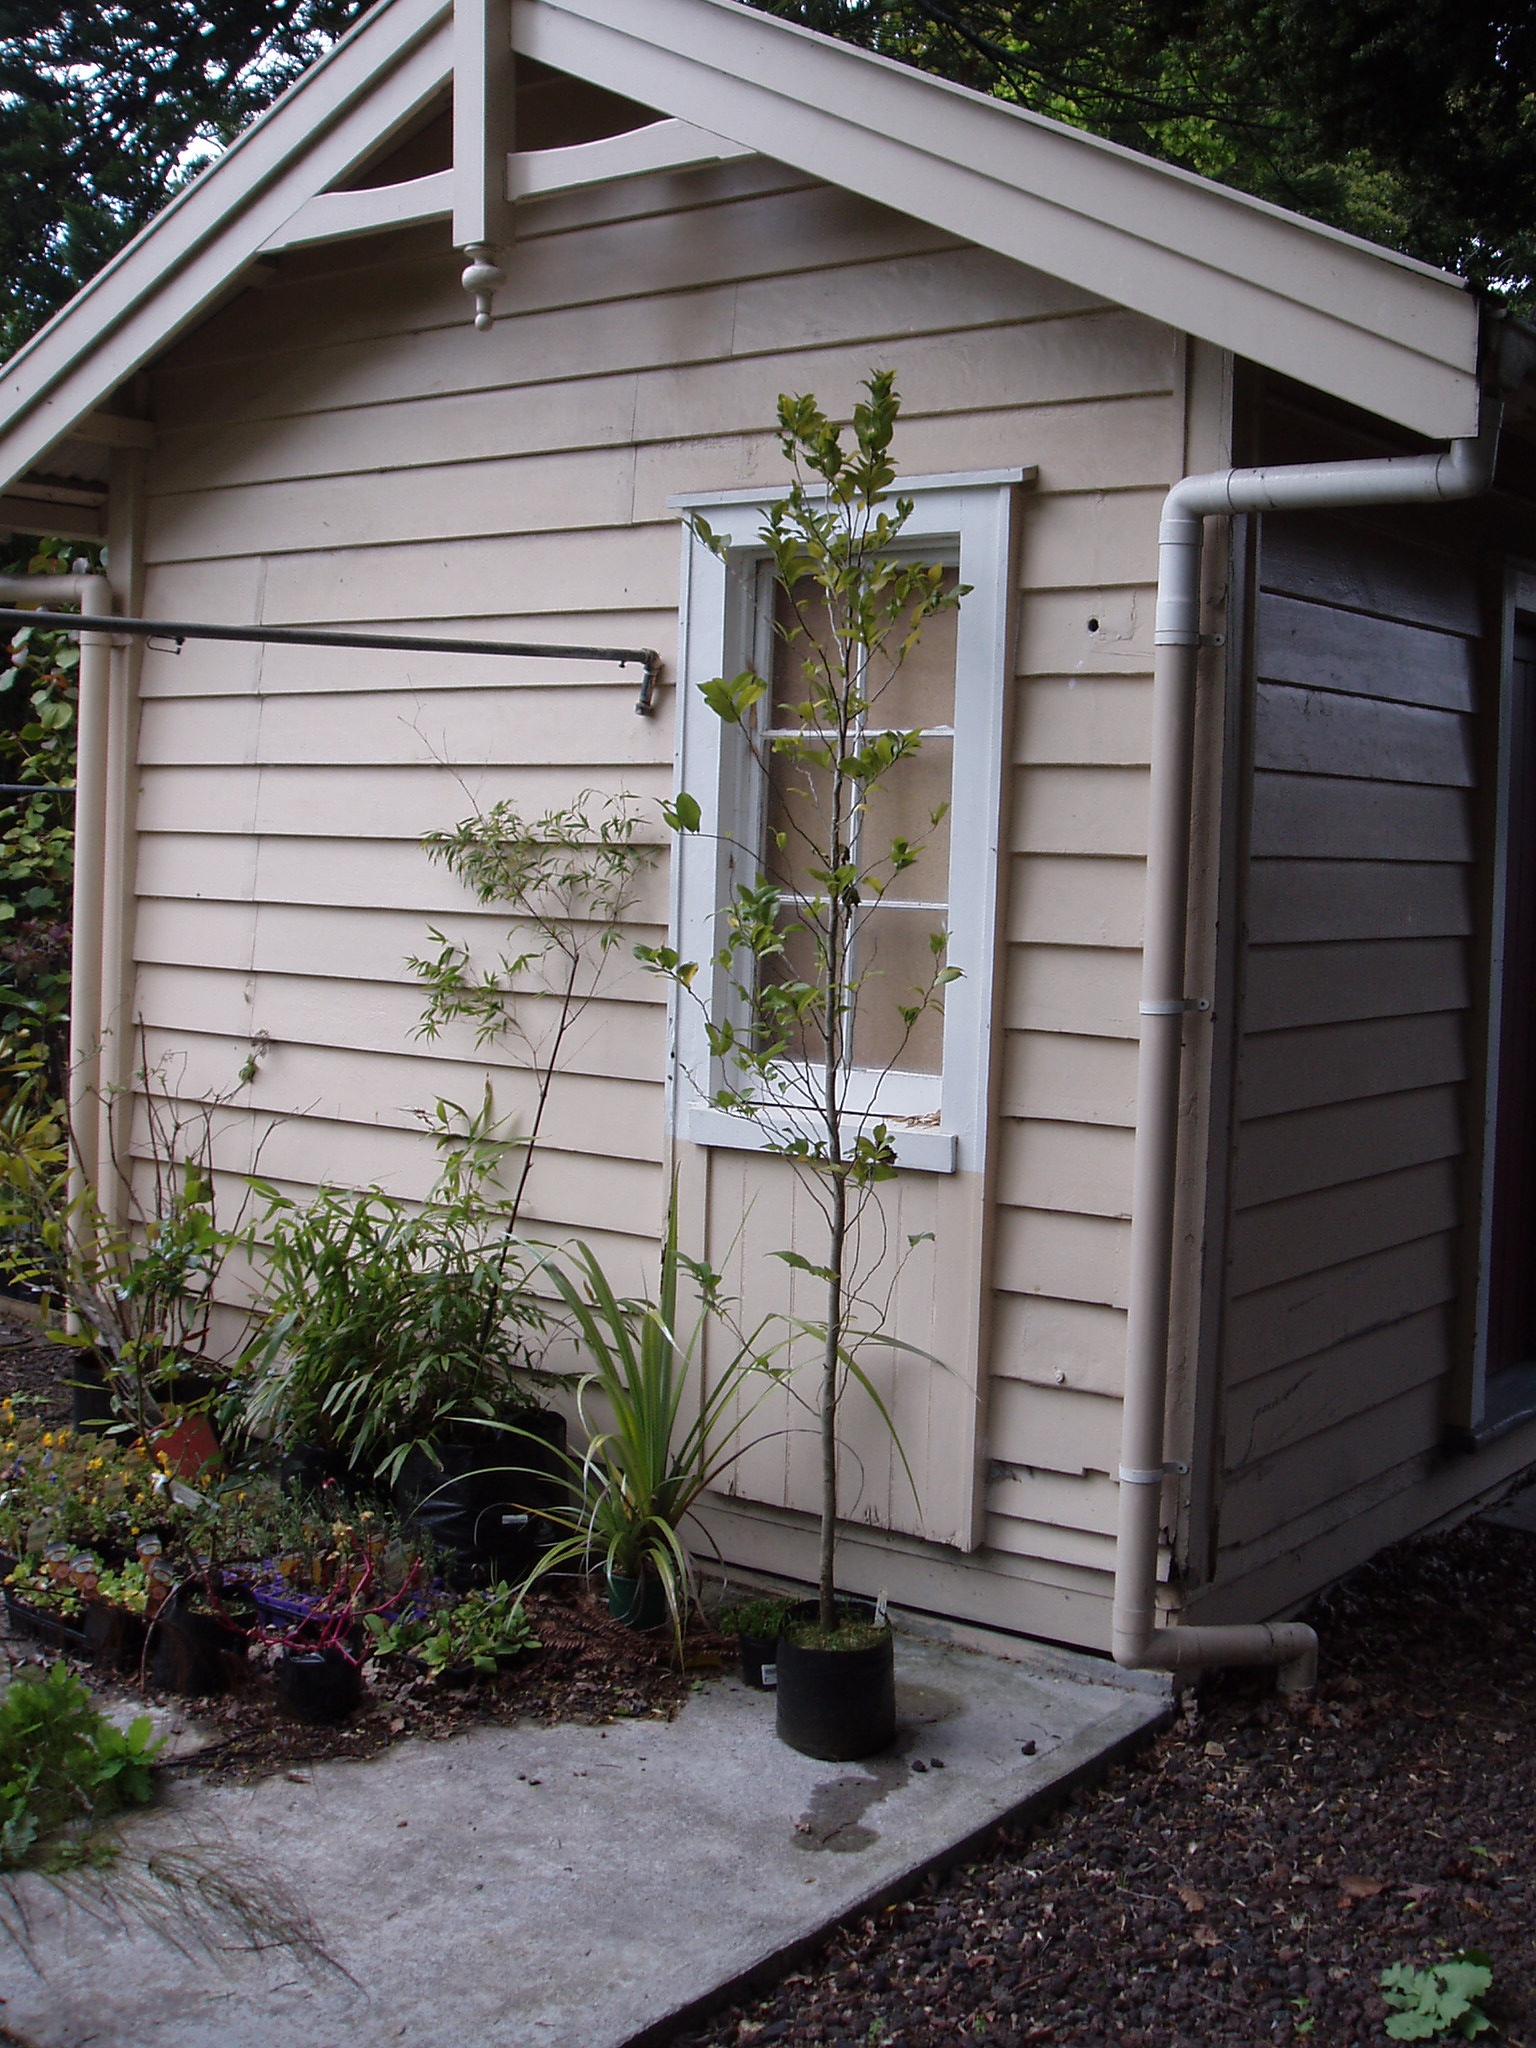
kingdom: Plantae
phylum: Tracheophyta
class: Magnoliopsida
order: Malpighiales
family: Putranjivaceae
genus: Drypetes
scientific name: Drypetes deplanchei
